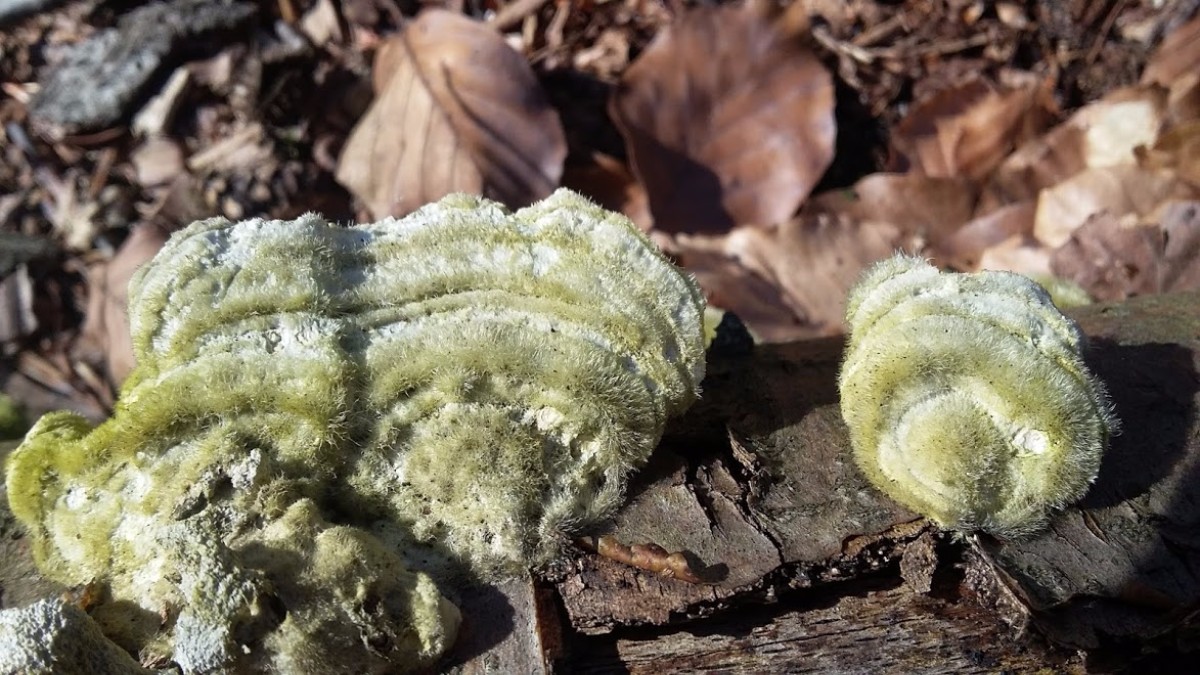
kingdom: Fungi
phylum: Basidiomycota
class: Agaricomycetes
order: Polyporales
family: Polyporaceae
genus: Trametes
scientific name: Trametes hirsuta
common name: håret læderporesvamp
